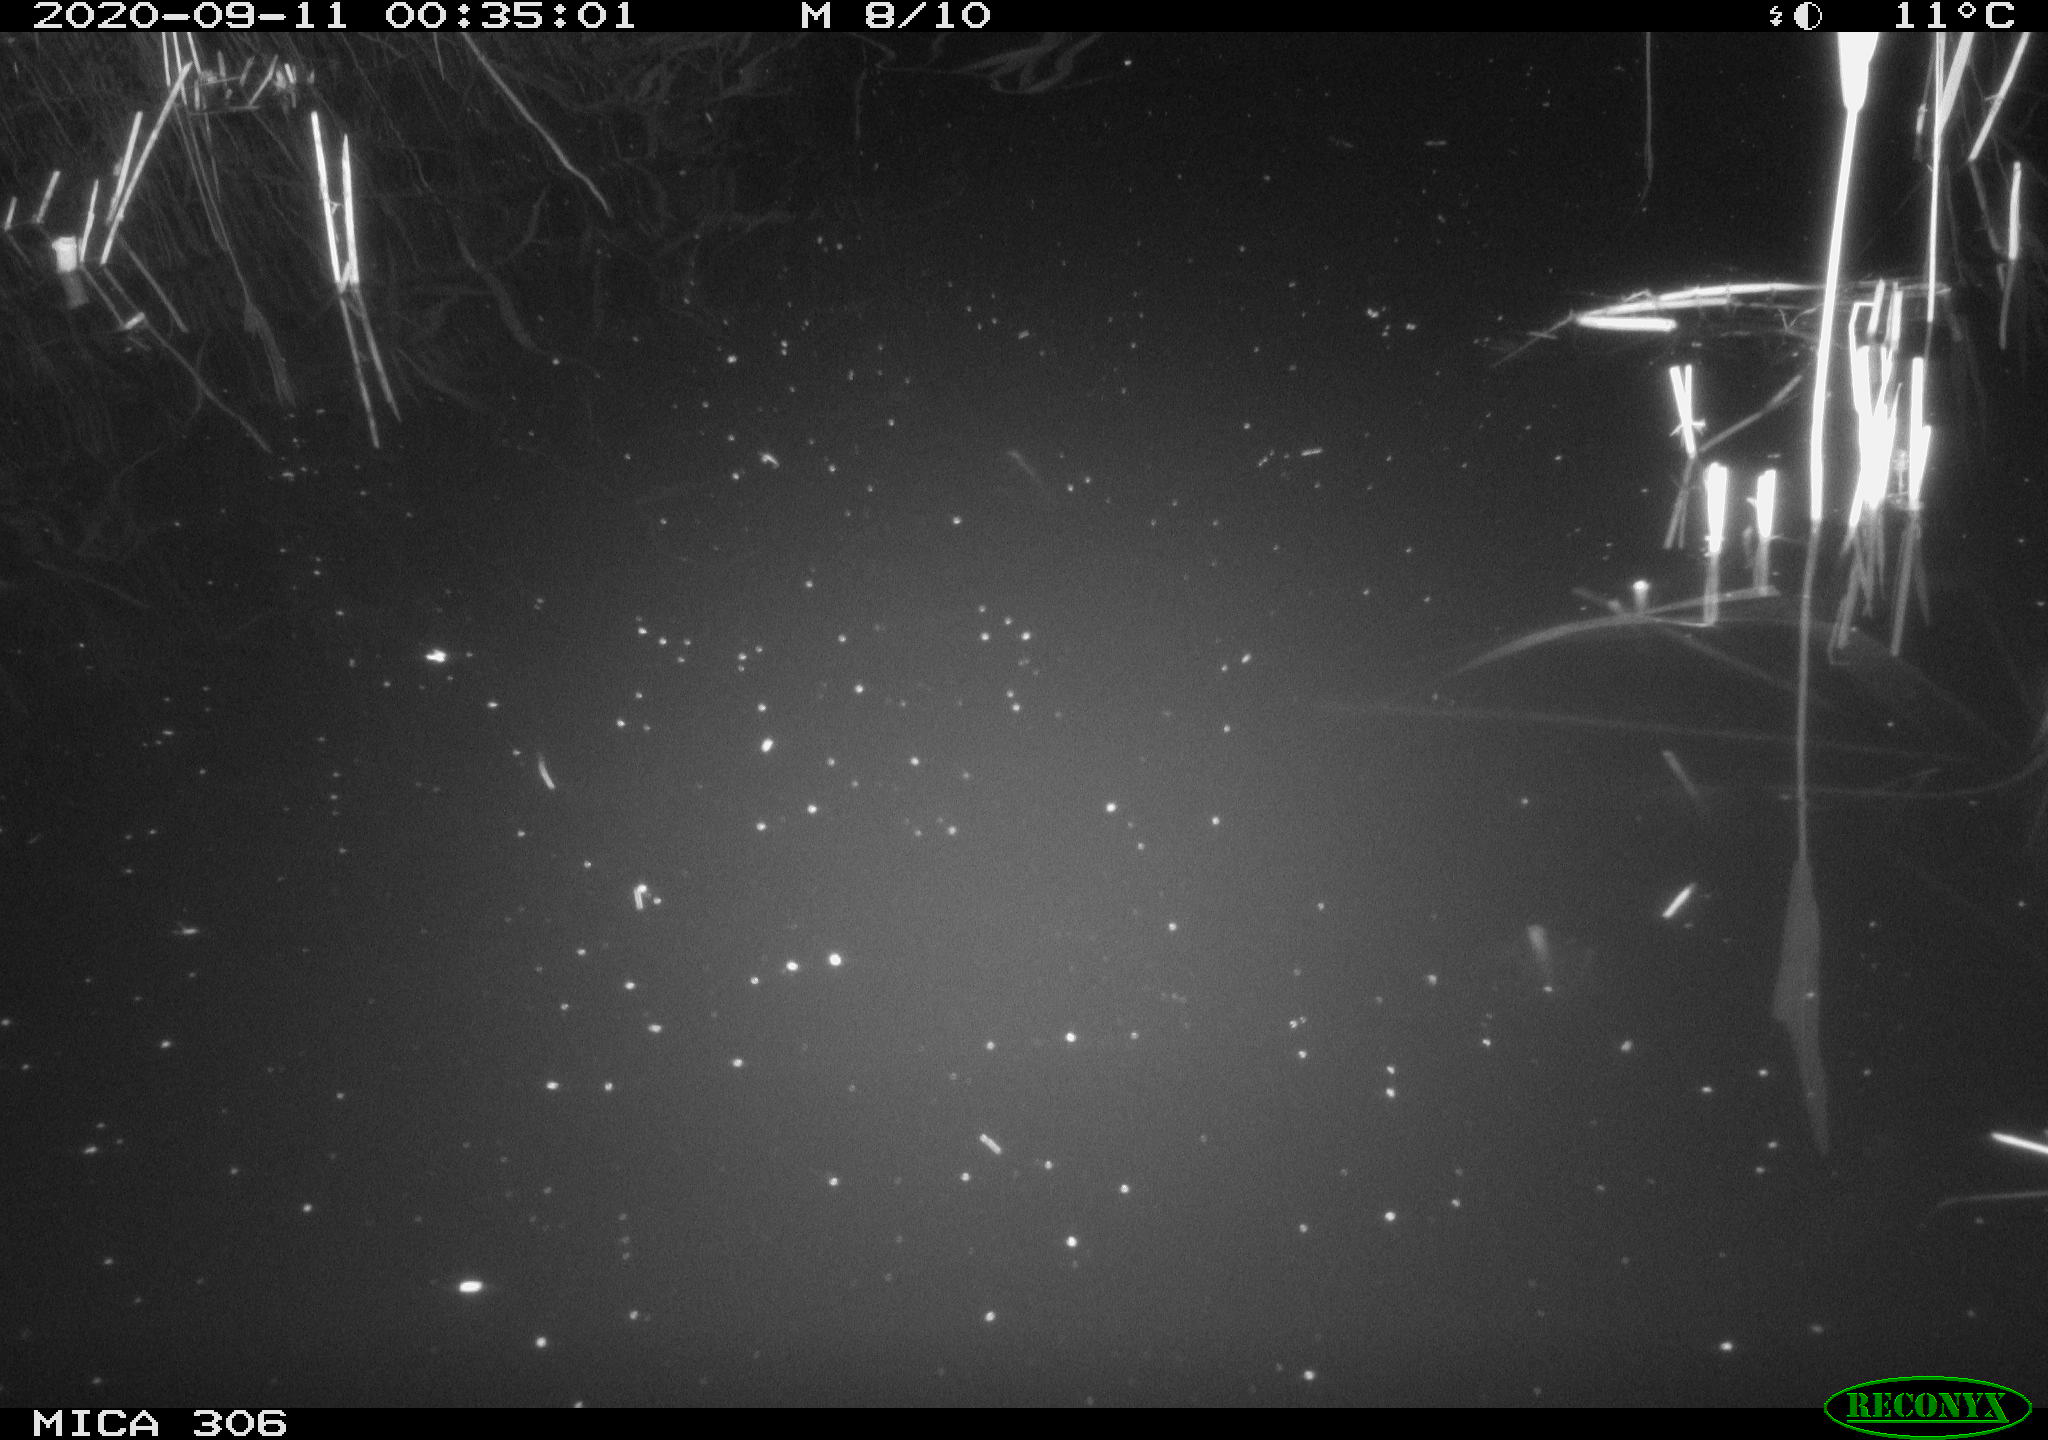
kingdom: Animalia
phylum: Chordata
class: Mammalia
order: Rodentia
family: Muridae
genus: Rattus
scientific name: Rattus norvegicus
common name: Brown rat
